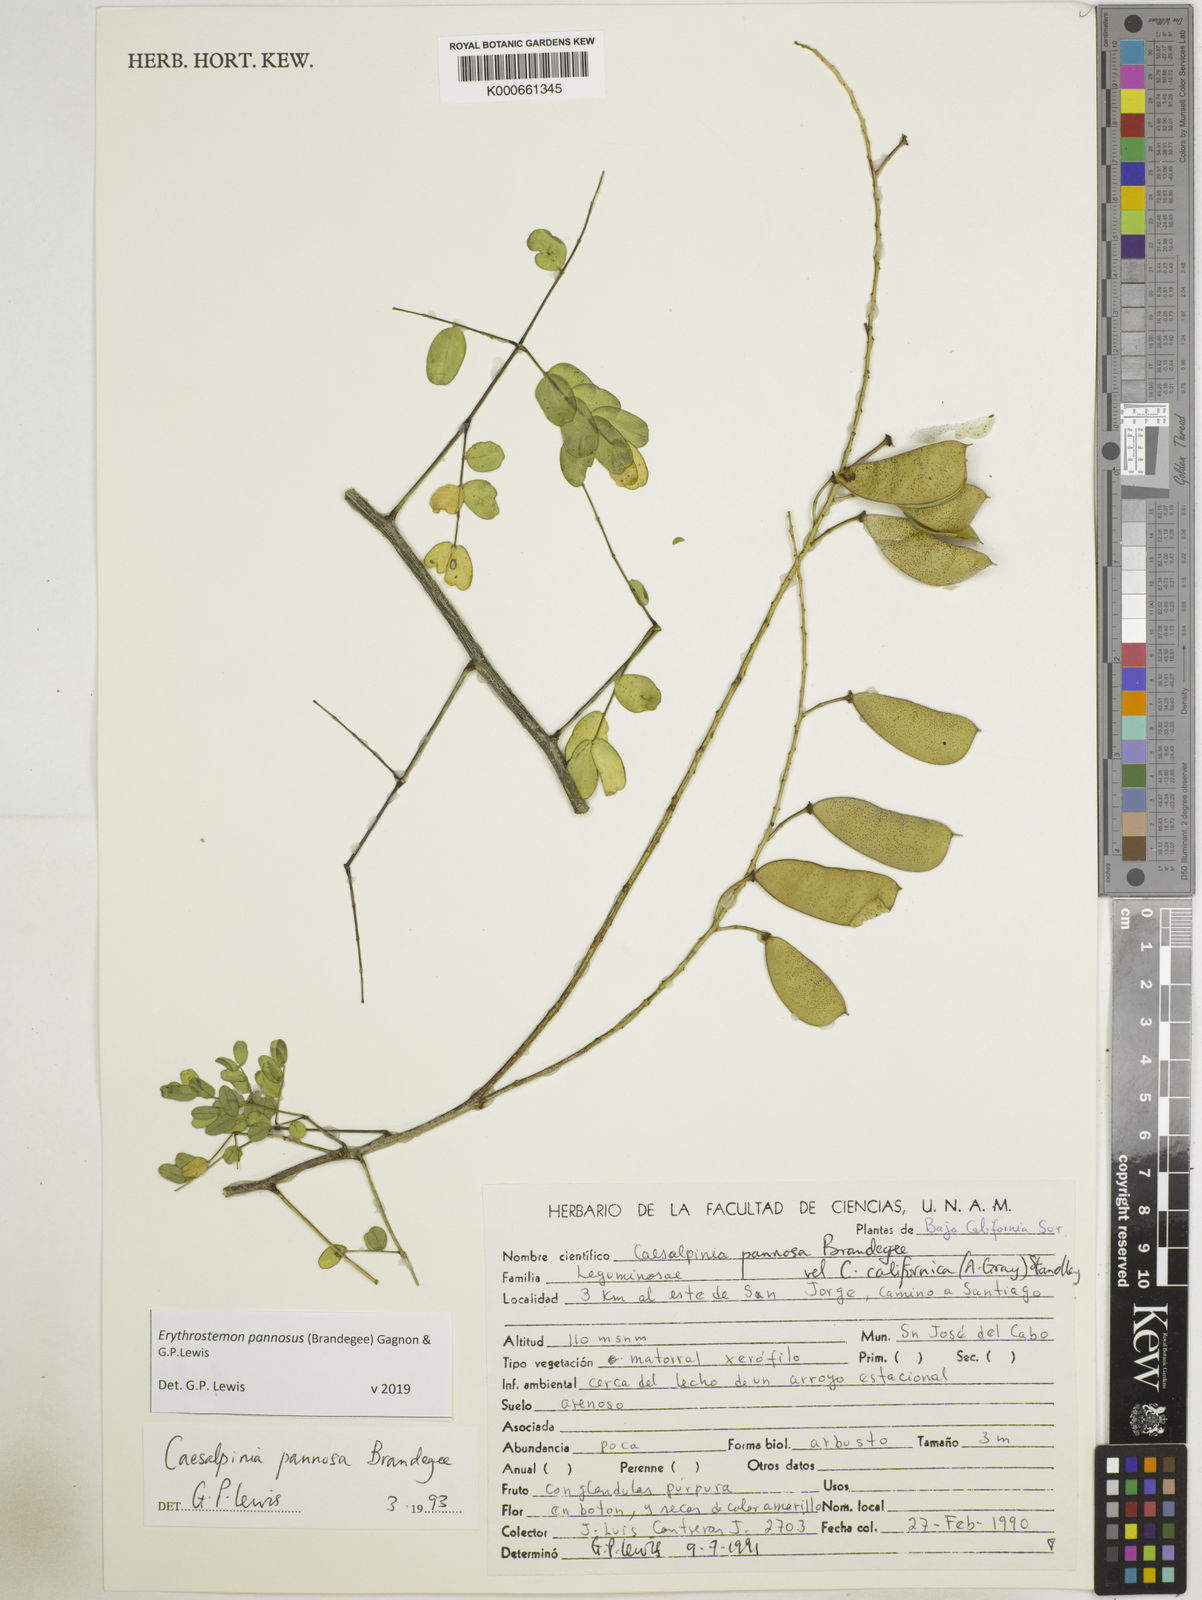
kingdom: Plantae
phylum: Tracheophyta
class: Magnoliopsida
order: Fabales
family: Fabaceae
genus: Erythrostemon
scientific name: Erythrostemon pannosus
